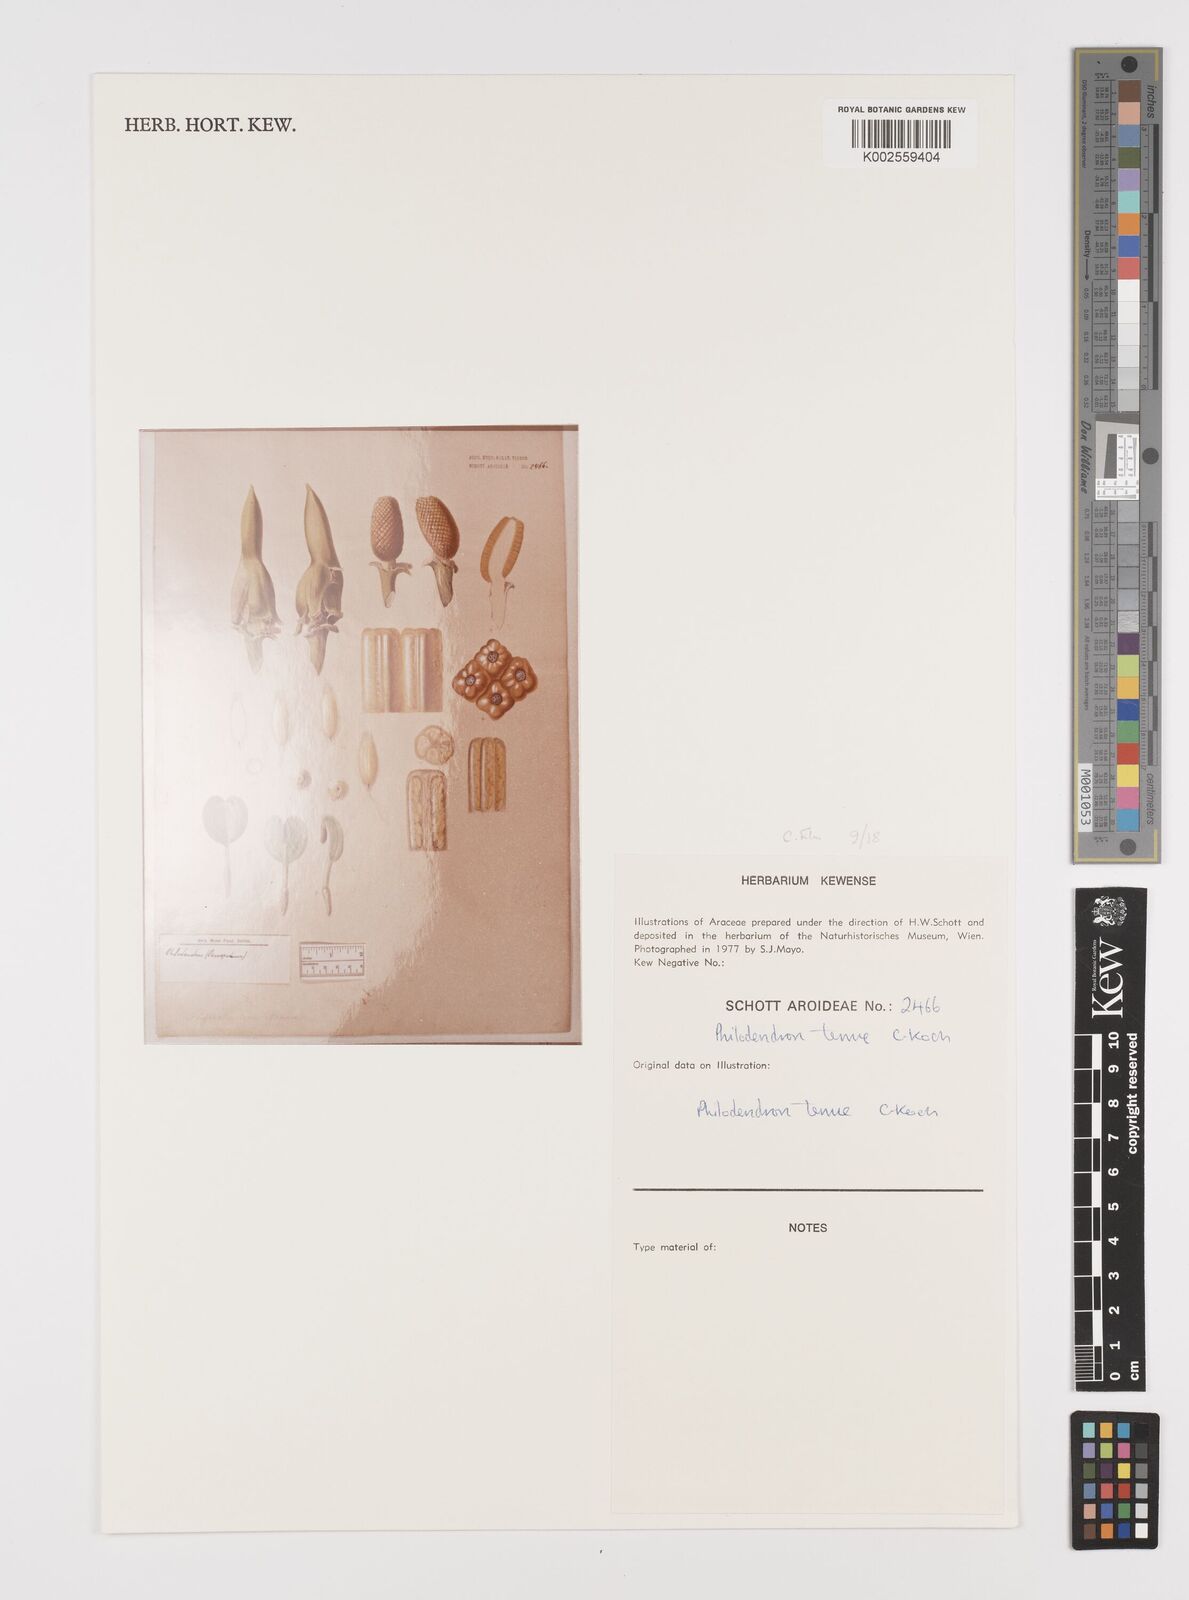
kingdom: Plantae
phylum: Tracheophyta
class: Liliopsida
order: Alismatales
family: Araceae
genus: Philodendron
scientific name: Philodendron tenue
